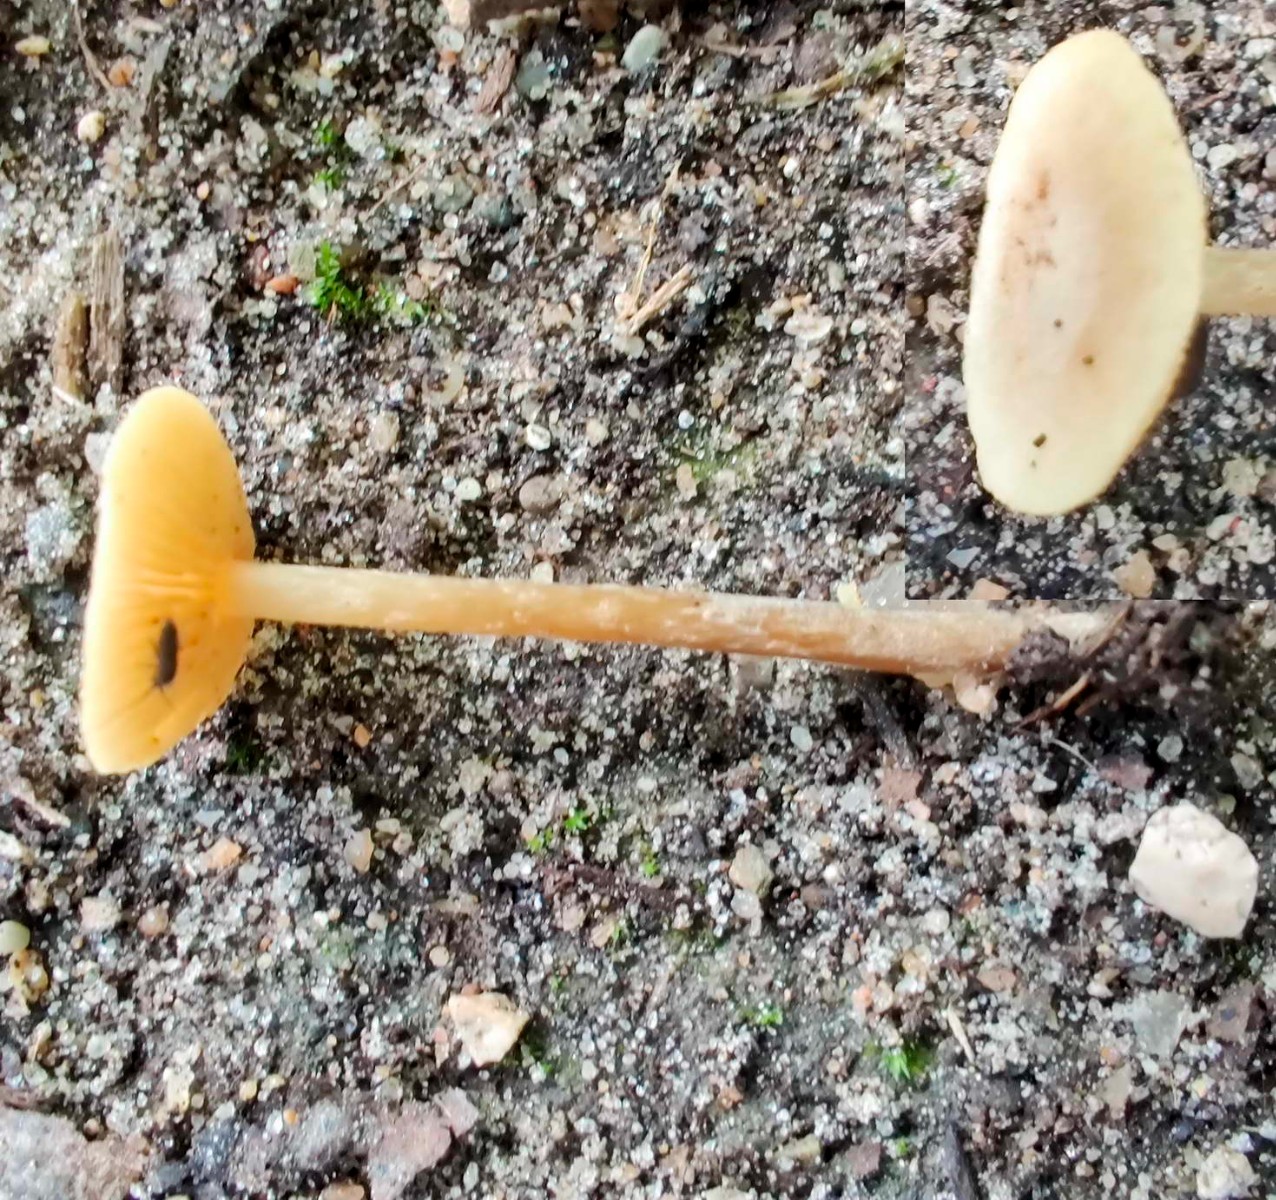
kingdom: Fungi
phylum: Basidiomycota
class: Agaricomycetes
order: Agaricales
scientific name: Agaricales
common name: champignonordenen
